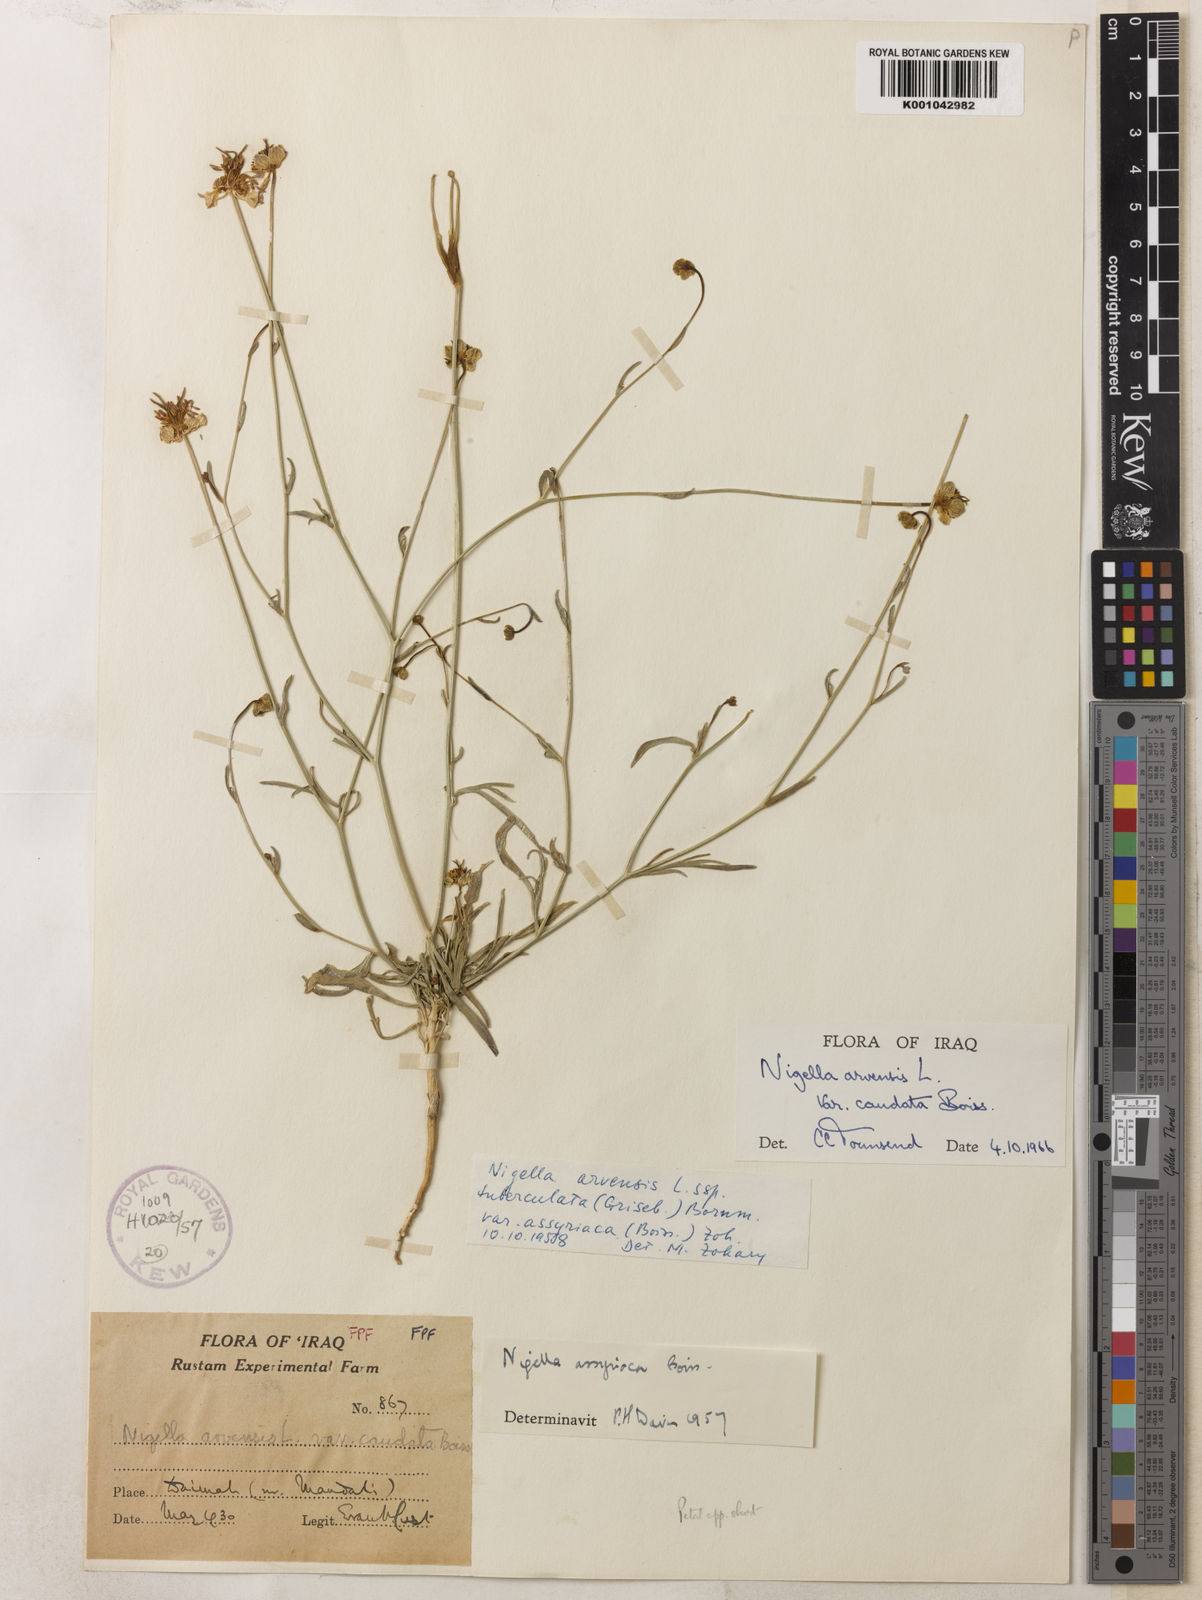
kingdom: Plantae
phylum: Tracheophyta
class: Magnoliopsida
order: Ranunculales
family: Ranunculaceae
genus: Nigella
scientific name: Nigella arvensis
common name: Wild fennel-flower
